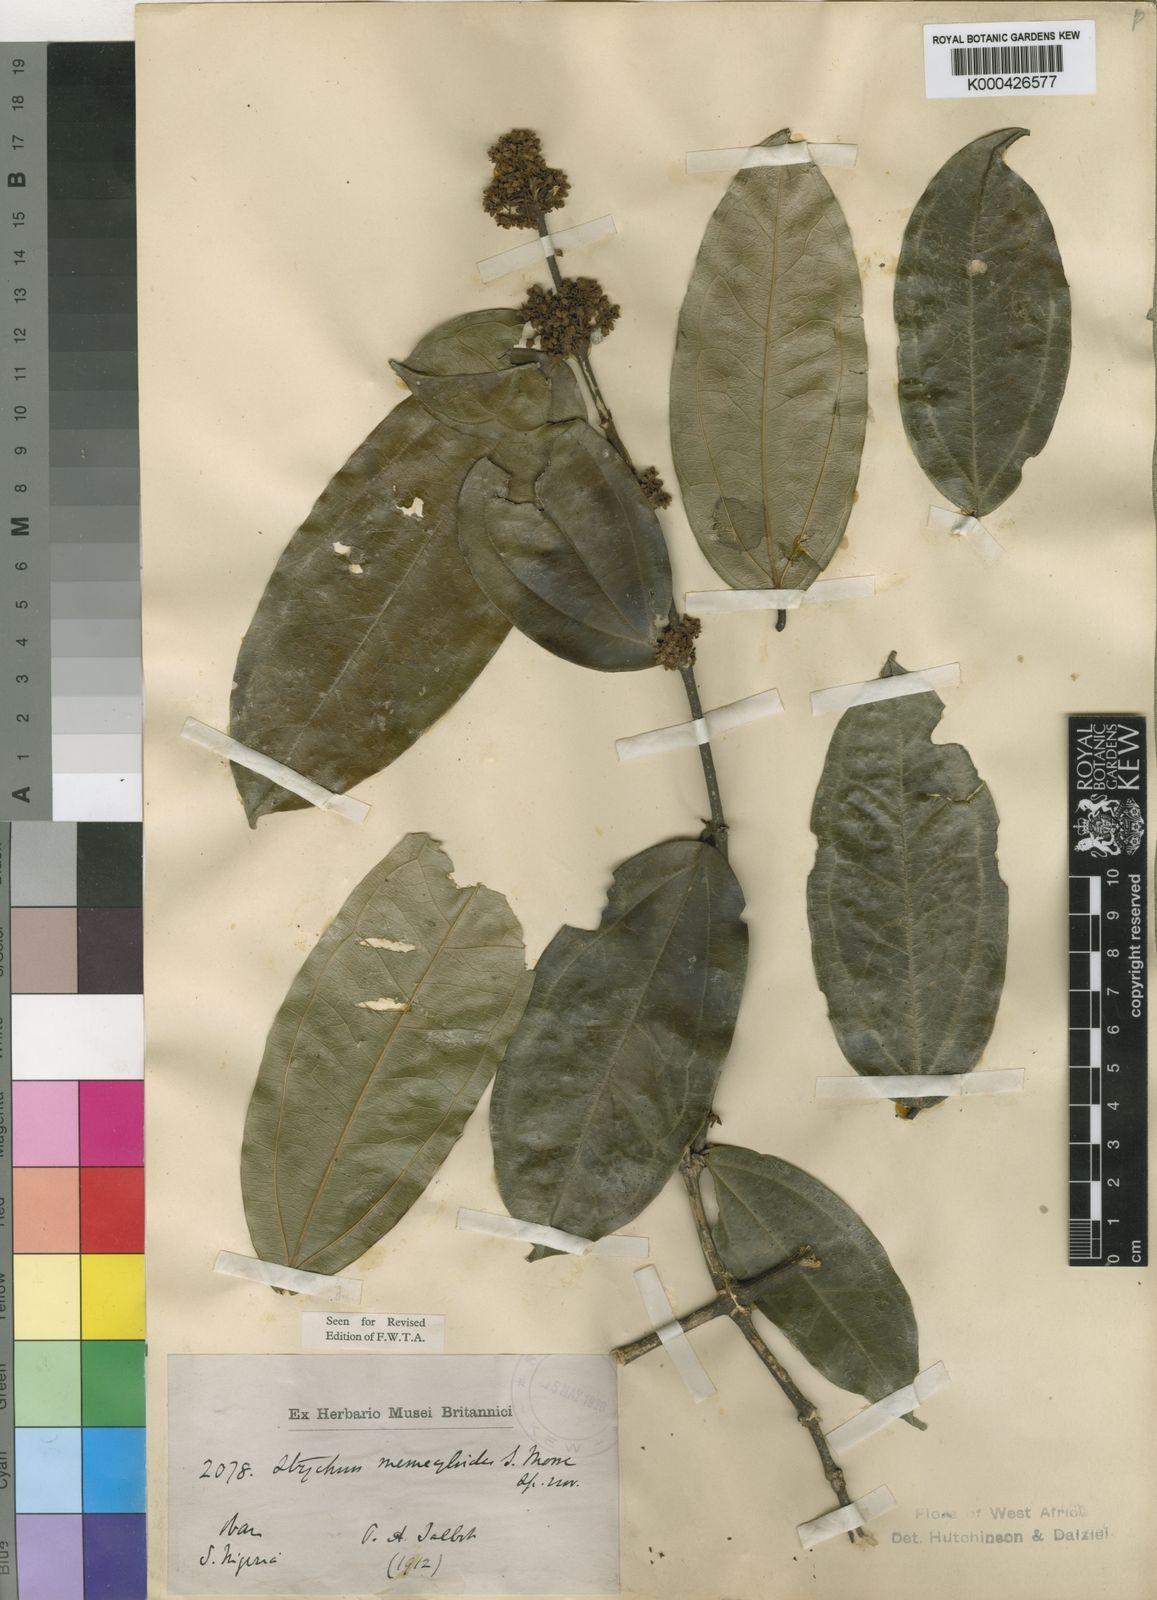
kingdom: Plantae
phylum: Tracheophyta
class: Magnoliopsida
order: Gentianales
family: Loganiaceae
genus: Strychnos
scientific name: Strychnos memecyloides
